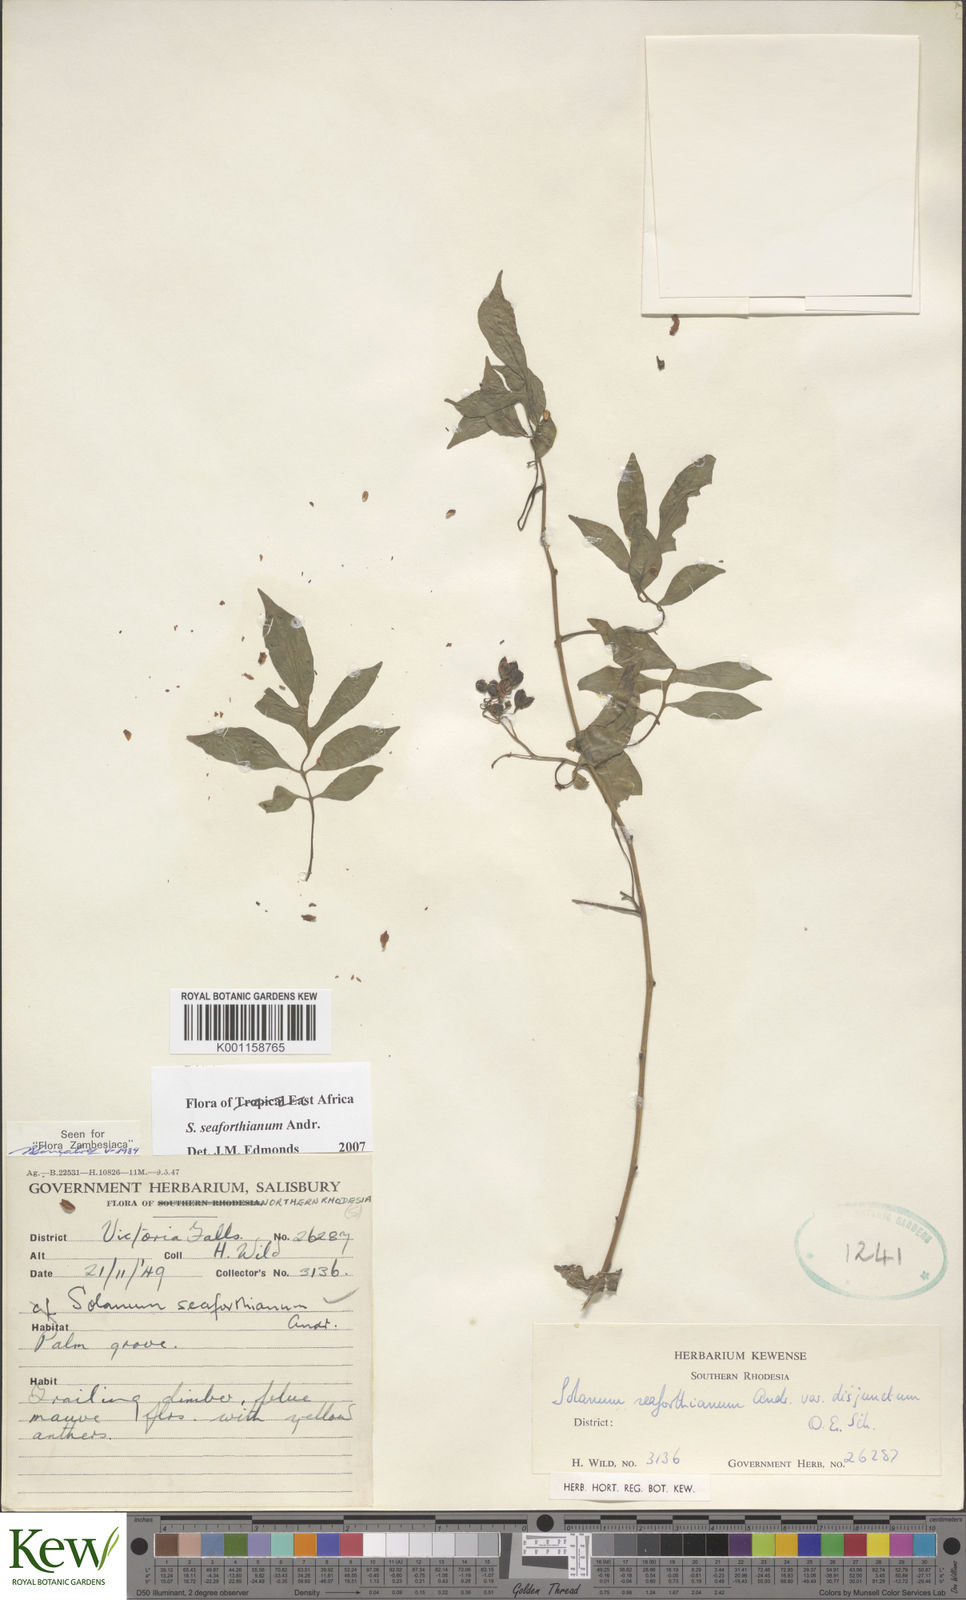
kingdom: Plantae
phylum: Tracheophyta
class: Magnoliopsida
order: Solanales
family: Solanaceae
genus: Solanum
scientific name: Solanum seaforthianum
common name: Brazilian nightshade
